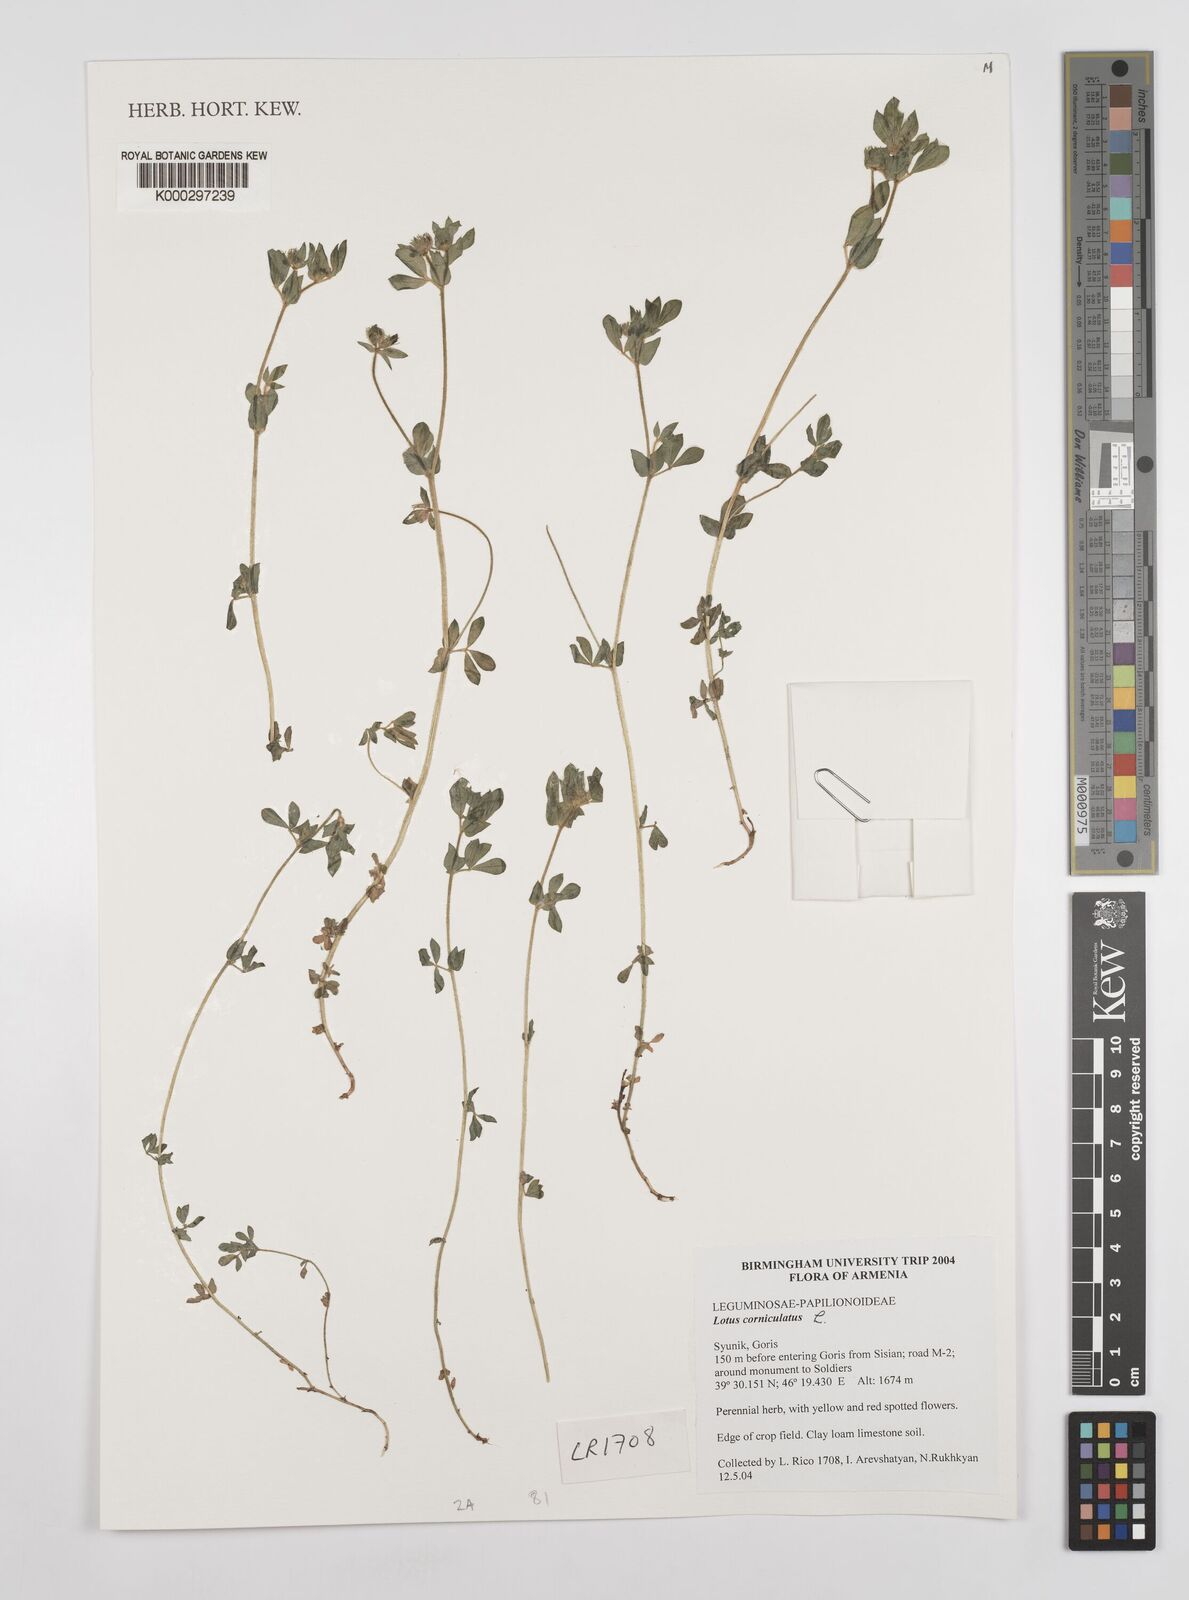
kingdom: Plantae
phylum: Tracheophyta
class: Magnoliopsida
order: Fabales
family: Fabaceae
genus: Lotus
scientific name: Lotus corniculatus
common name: Common bird's-foot-trefoil
